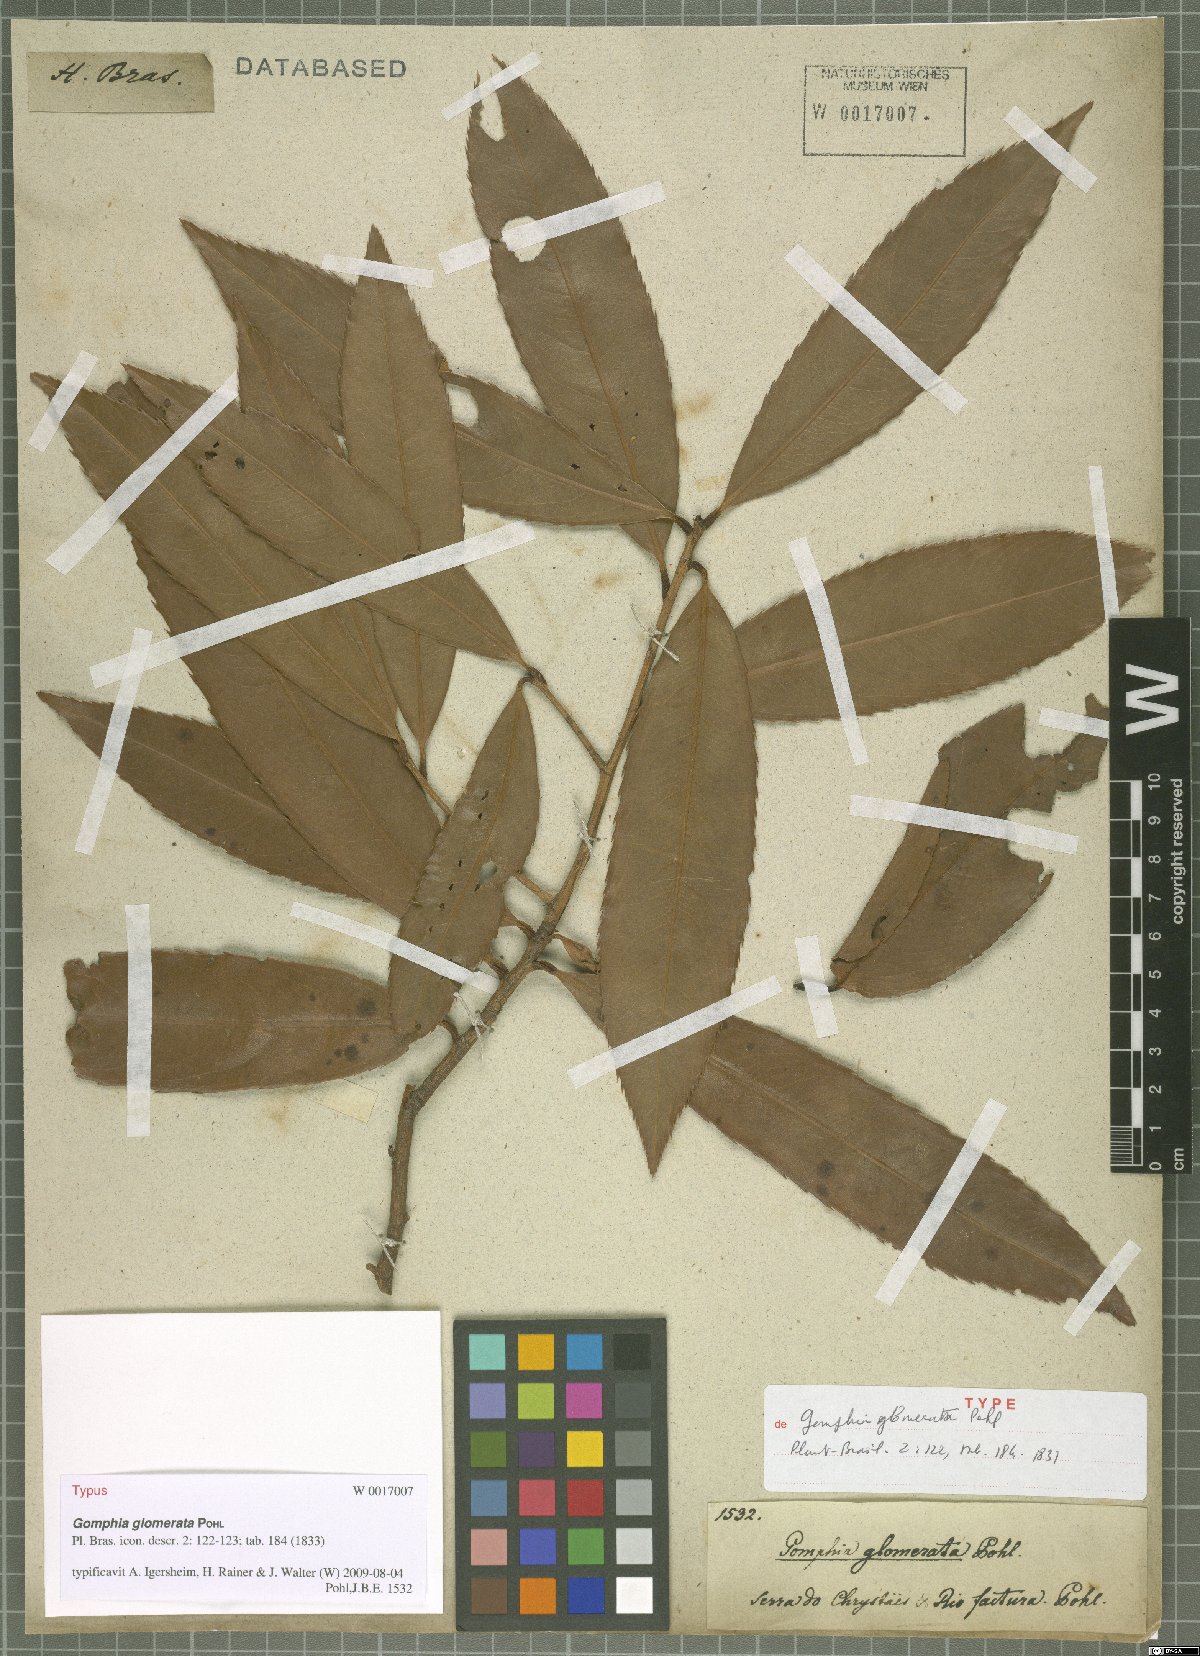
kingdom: Plantae
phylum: Tracheophyta
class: Magnoliopsida
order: Malpighiales
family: Ochnaceae
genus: Ouratea
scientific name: Ouratea glomerata
